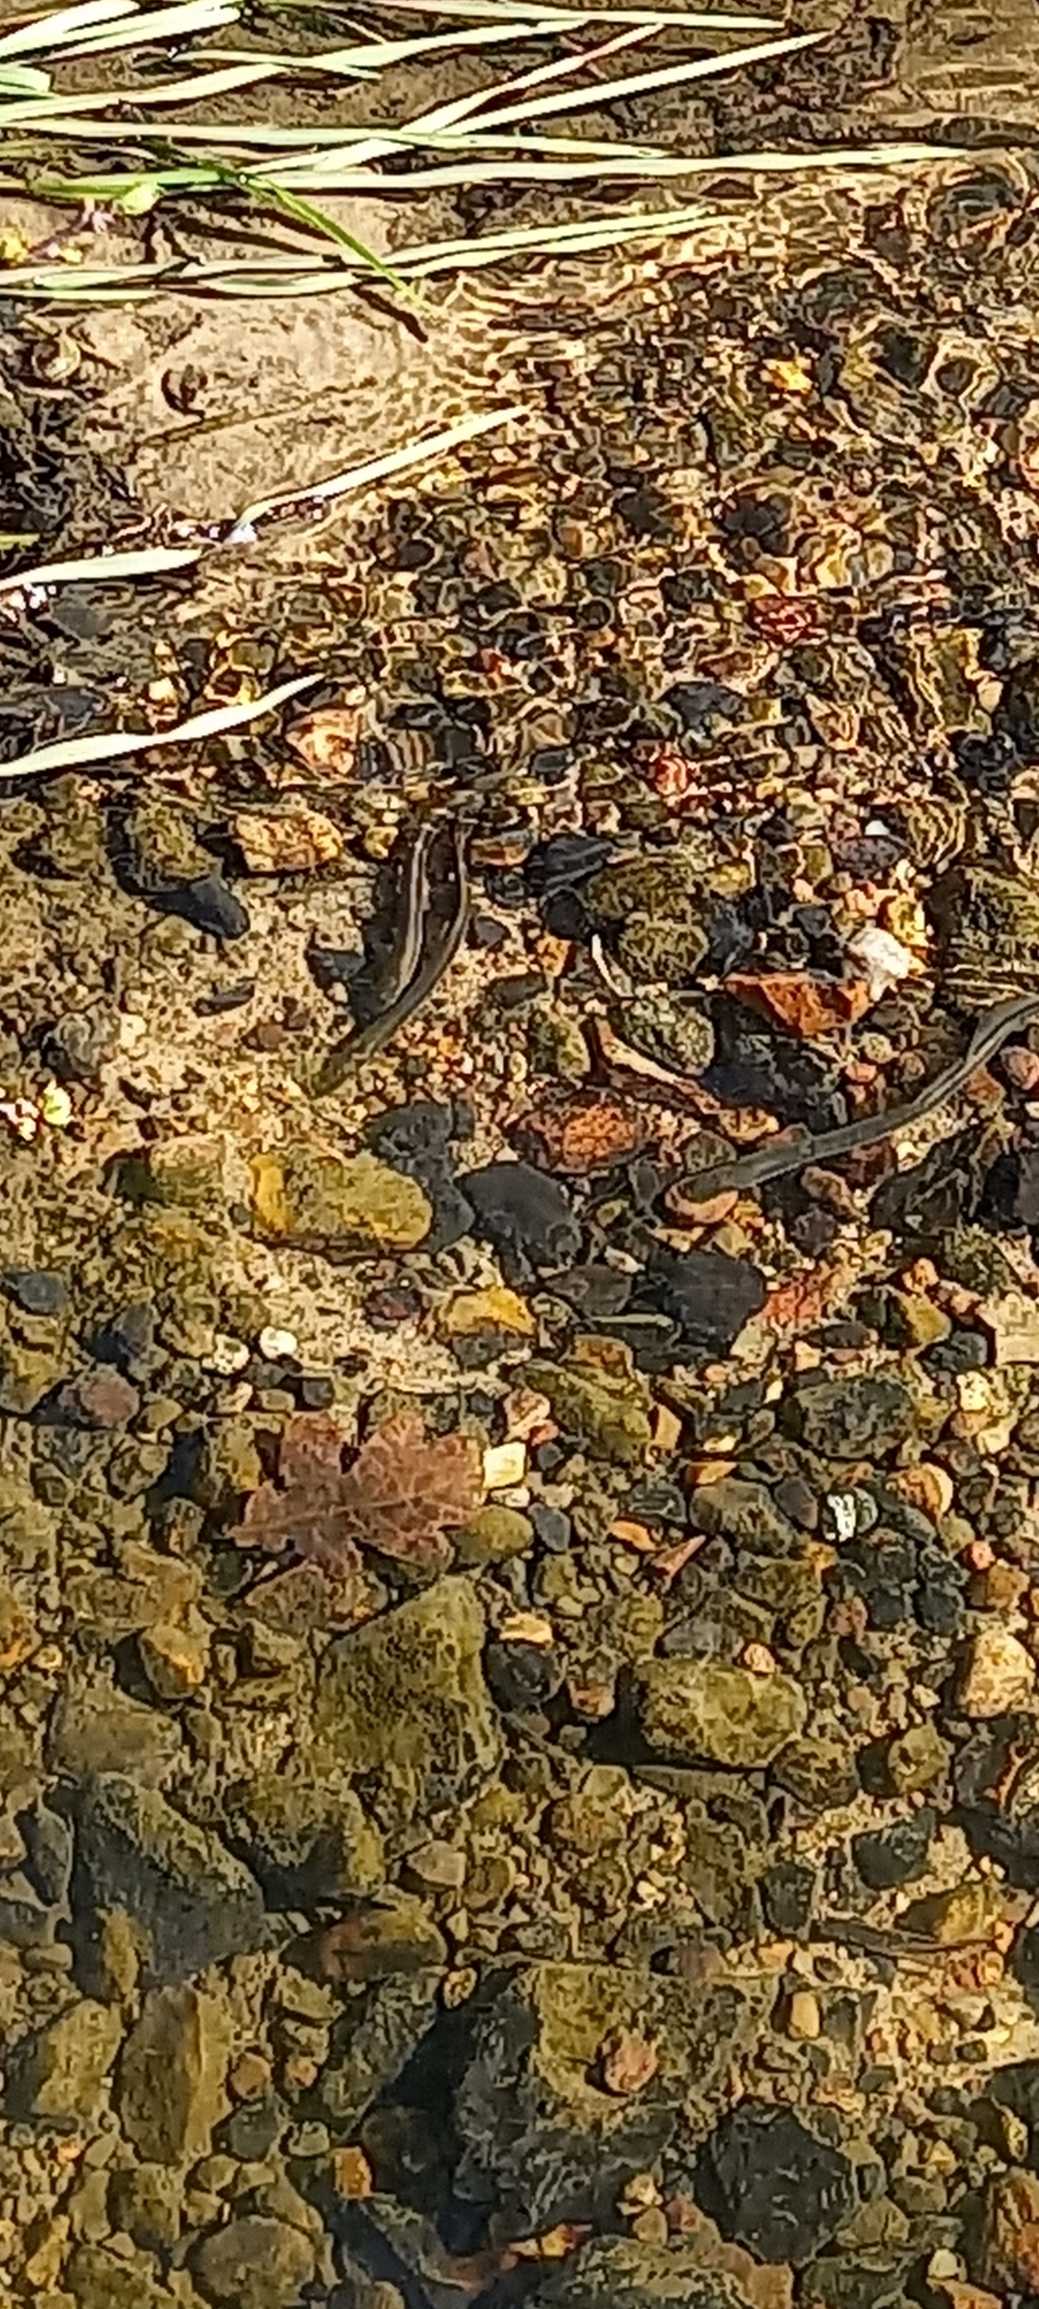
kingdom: Animalia
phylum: Chordata
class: Petromyzonti
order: Petromyzontiformes
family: Petromyzontidae
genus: Lampetra
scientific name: Lampetra planeri
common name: Bæklampret
